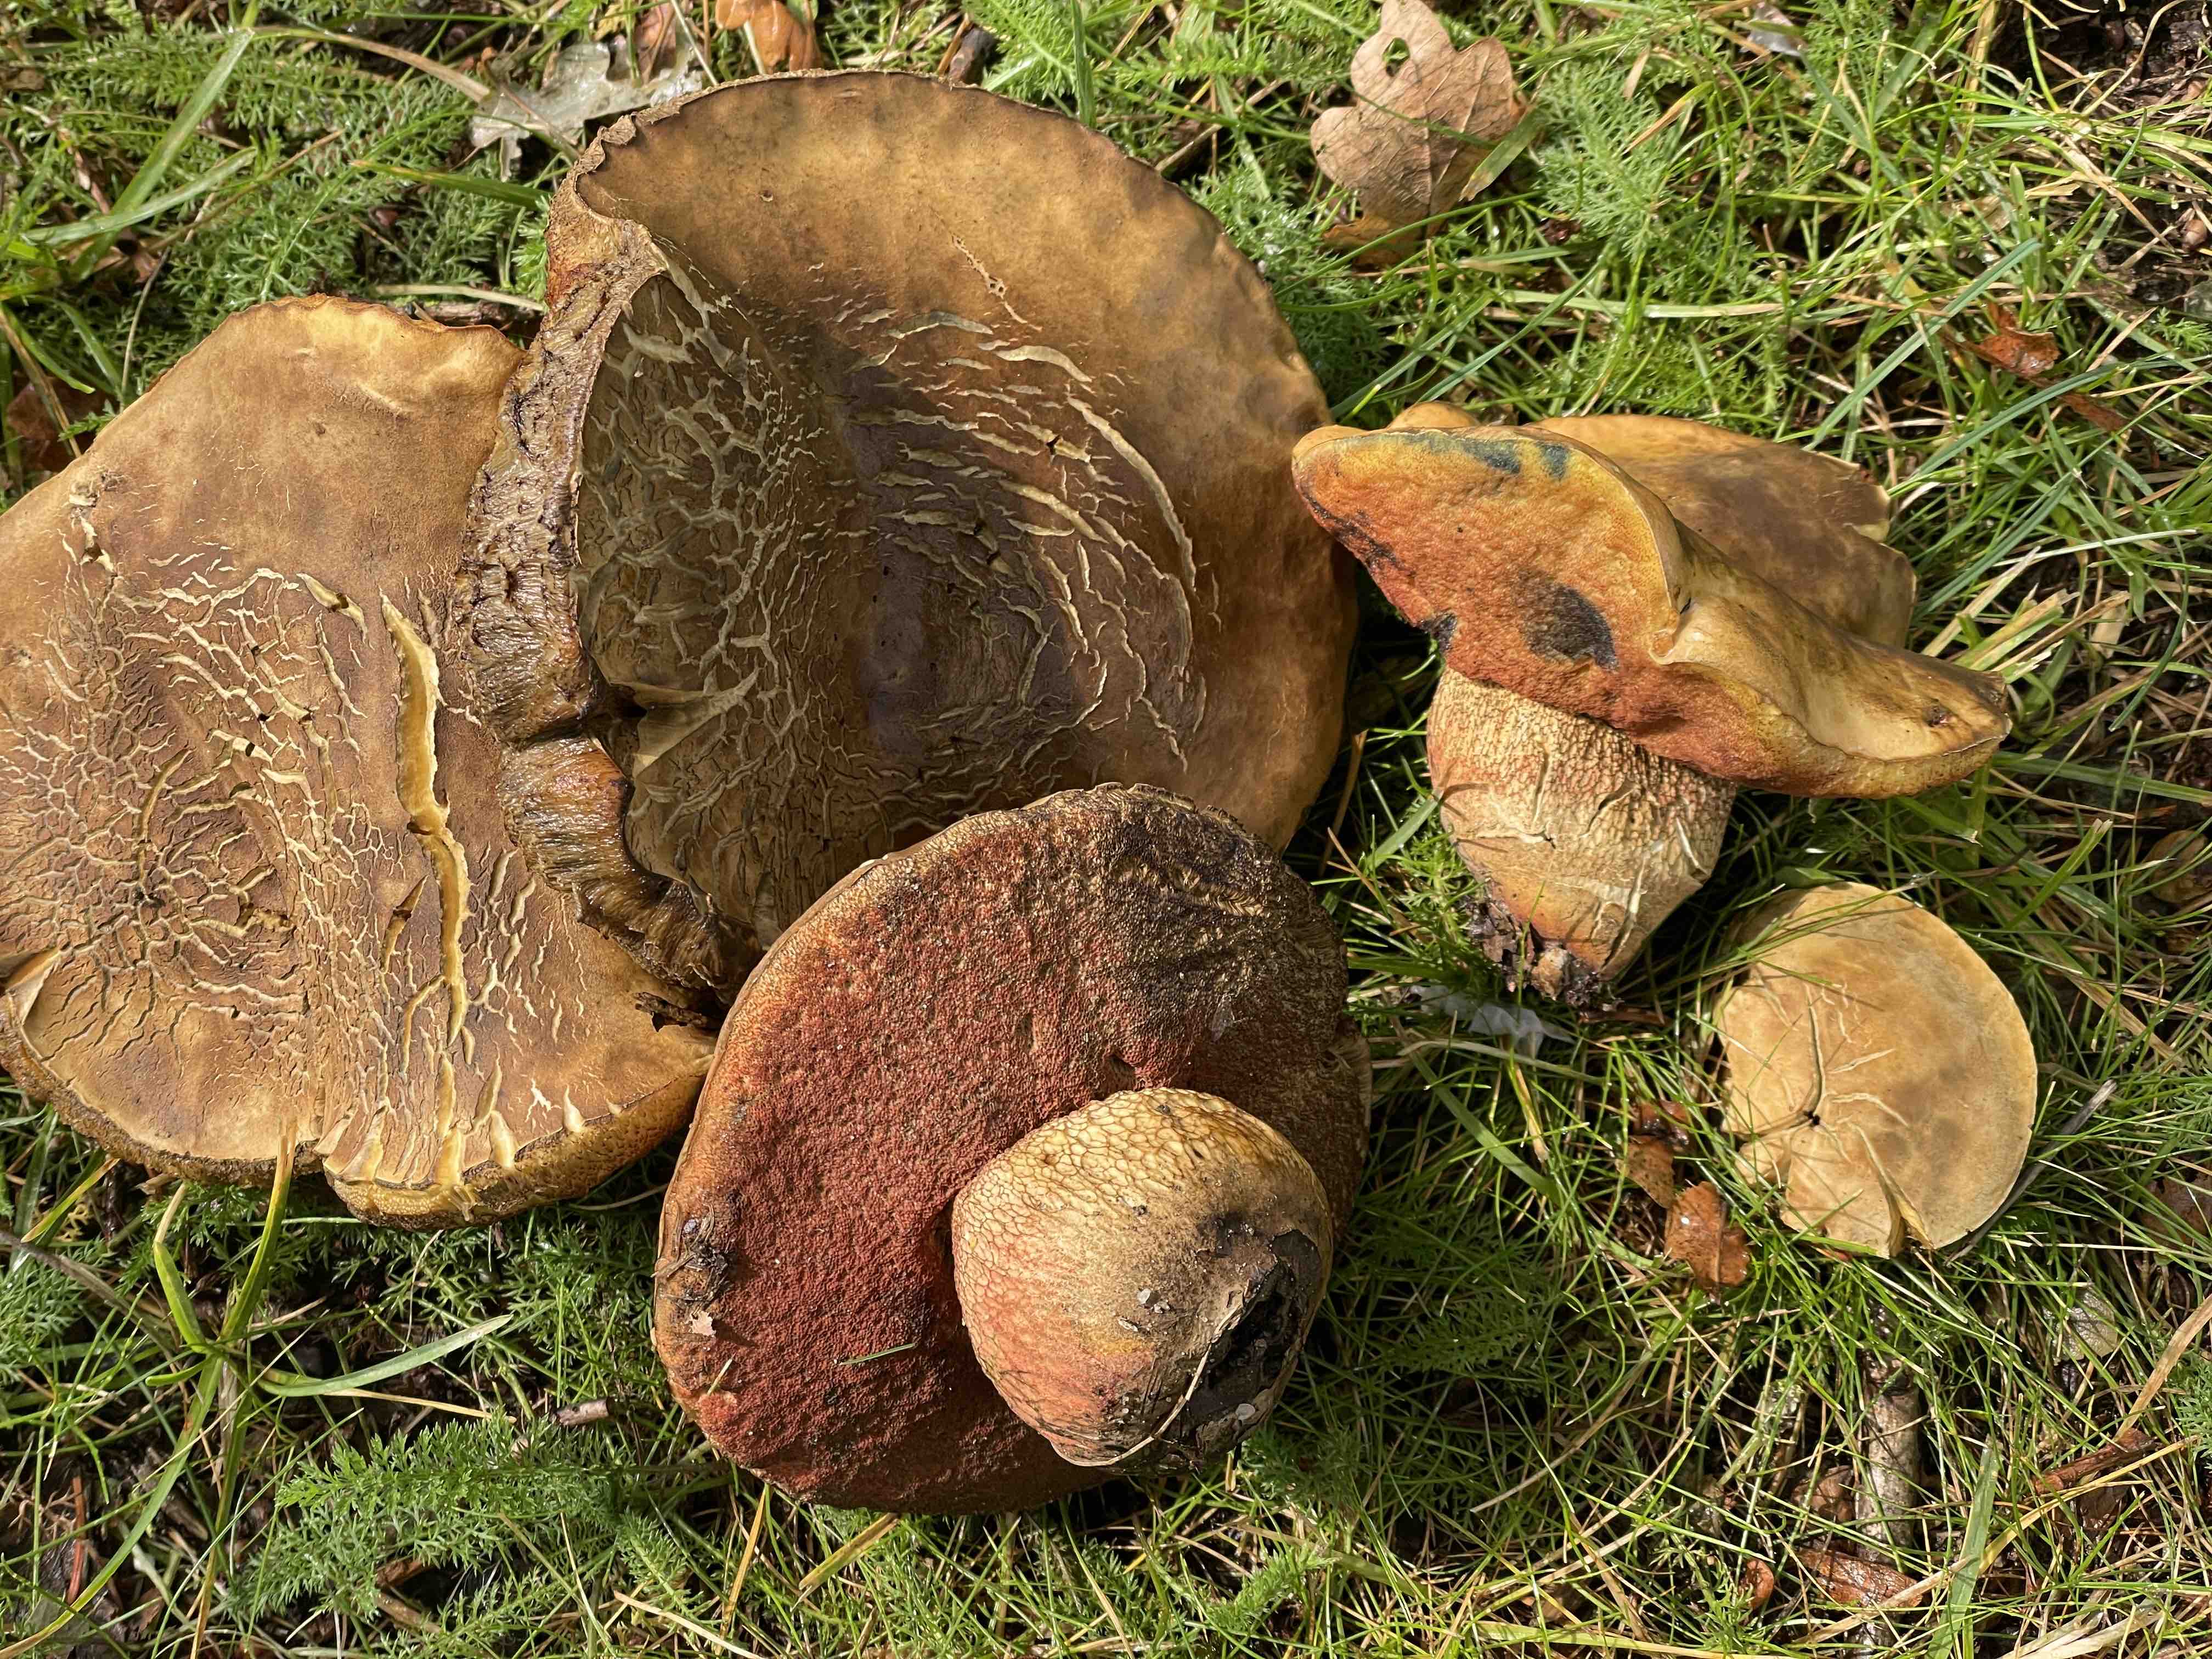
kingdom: Fungi
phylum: Basidiomycota
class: Agaricomycetes
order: Boletales
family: Boletaceae
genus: Suillellus
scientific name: Suillellus luridus
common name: netstokket indigorørhat
